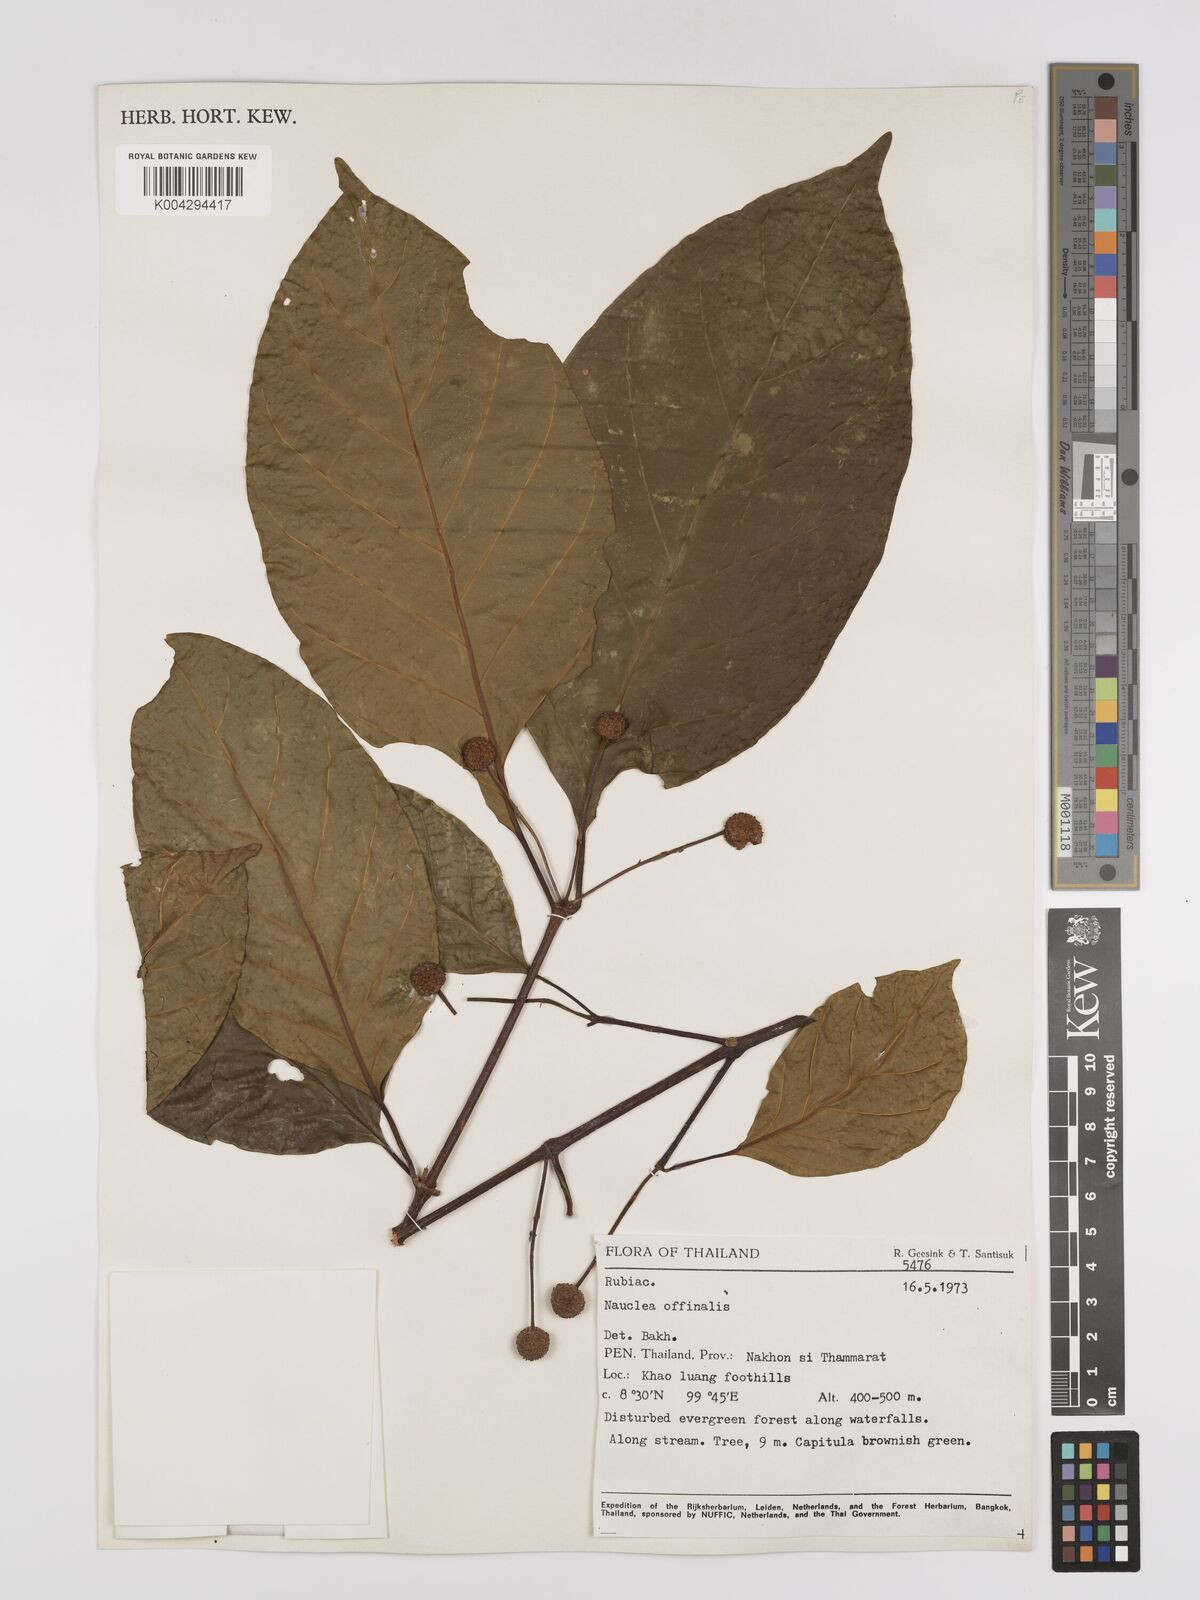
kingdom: Plantae
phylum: Tracheophyta
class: Magnoliopsida
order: Gentianales
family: Rubiaceae
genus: Nauclea
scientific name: Nauclea officinalis
